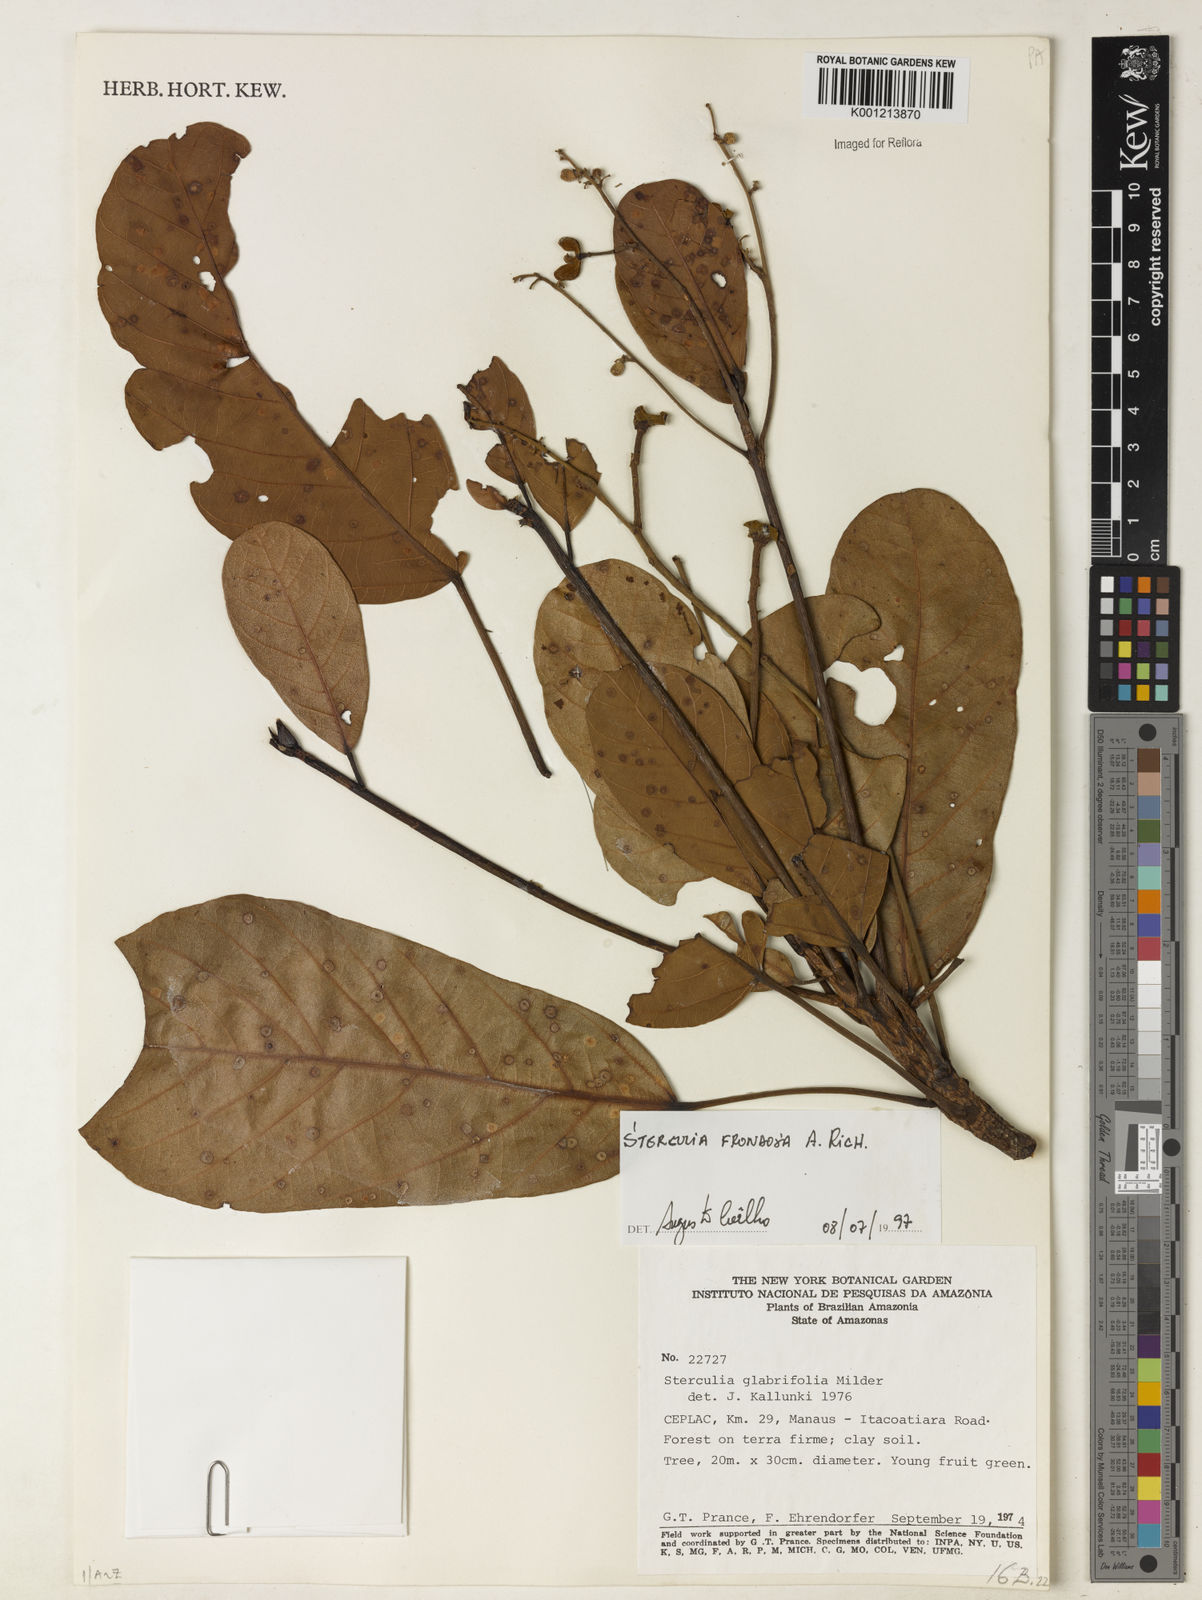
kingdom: Plantae
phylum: Tracheophyta
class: Magnoliopsida
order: Malvales
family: Malvaceae
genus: Sterculia
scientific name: Sterculia frondosa
